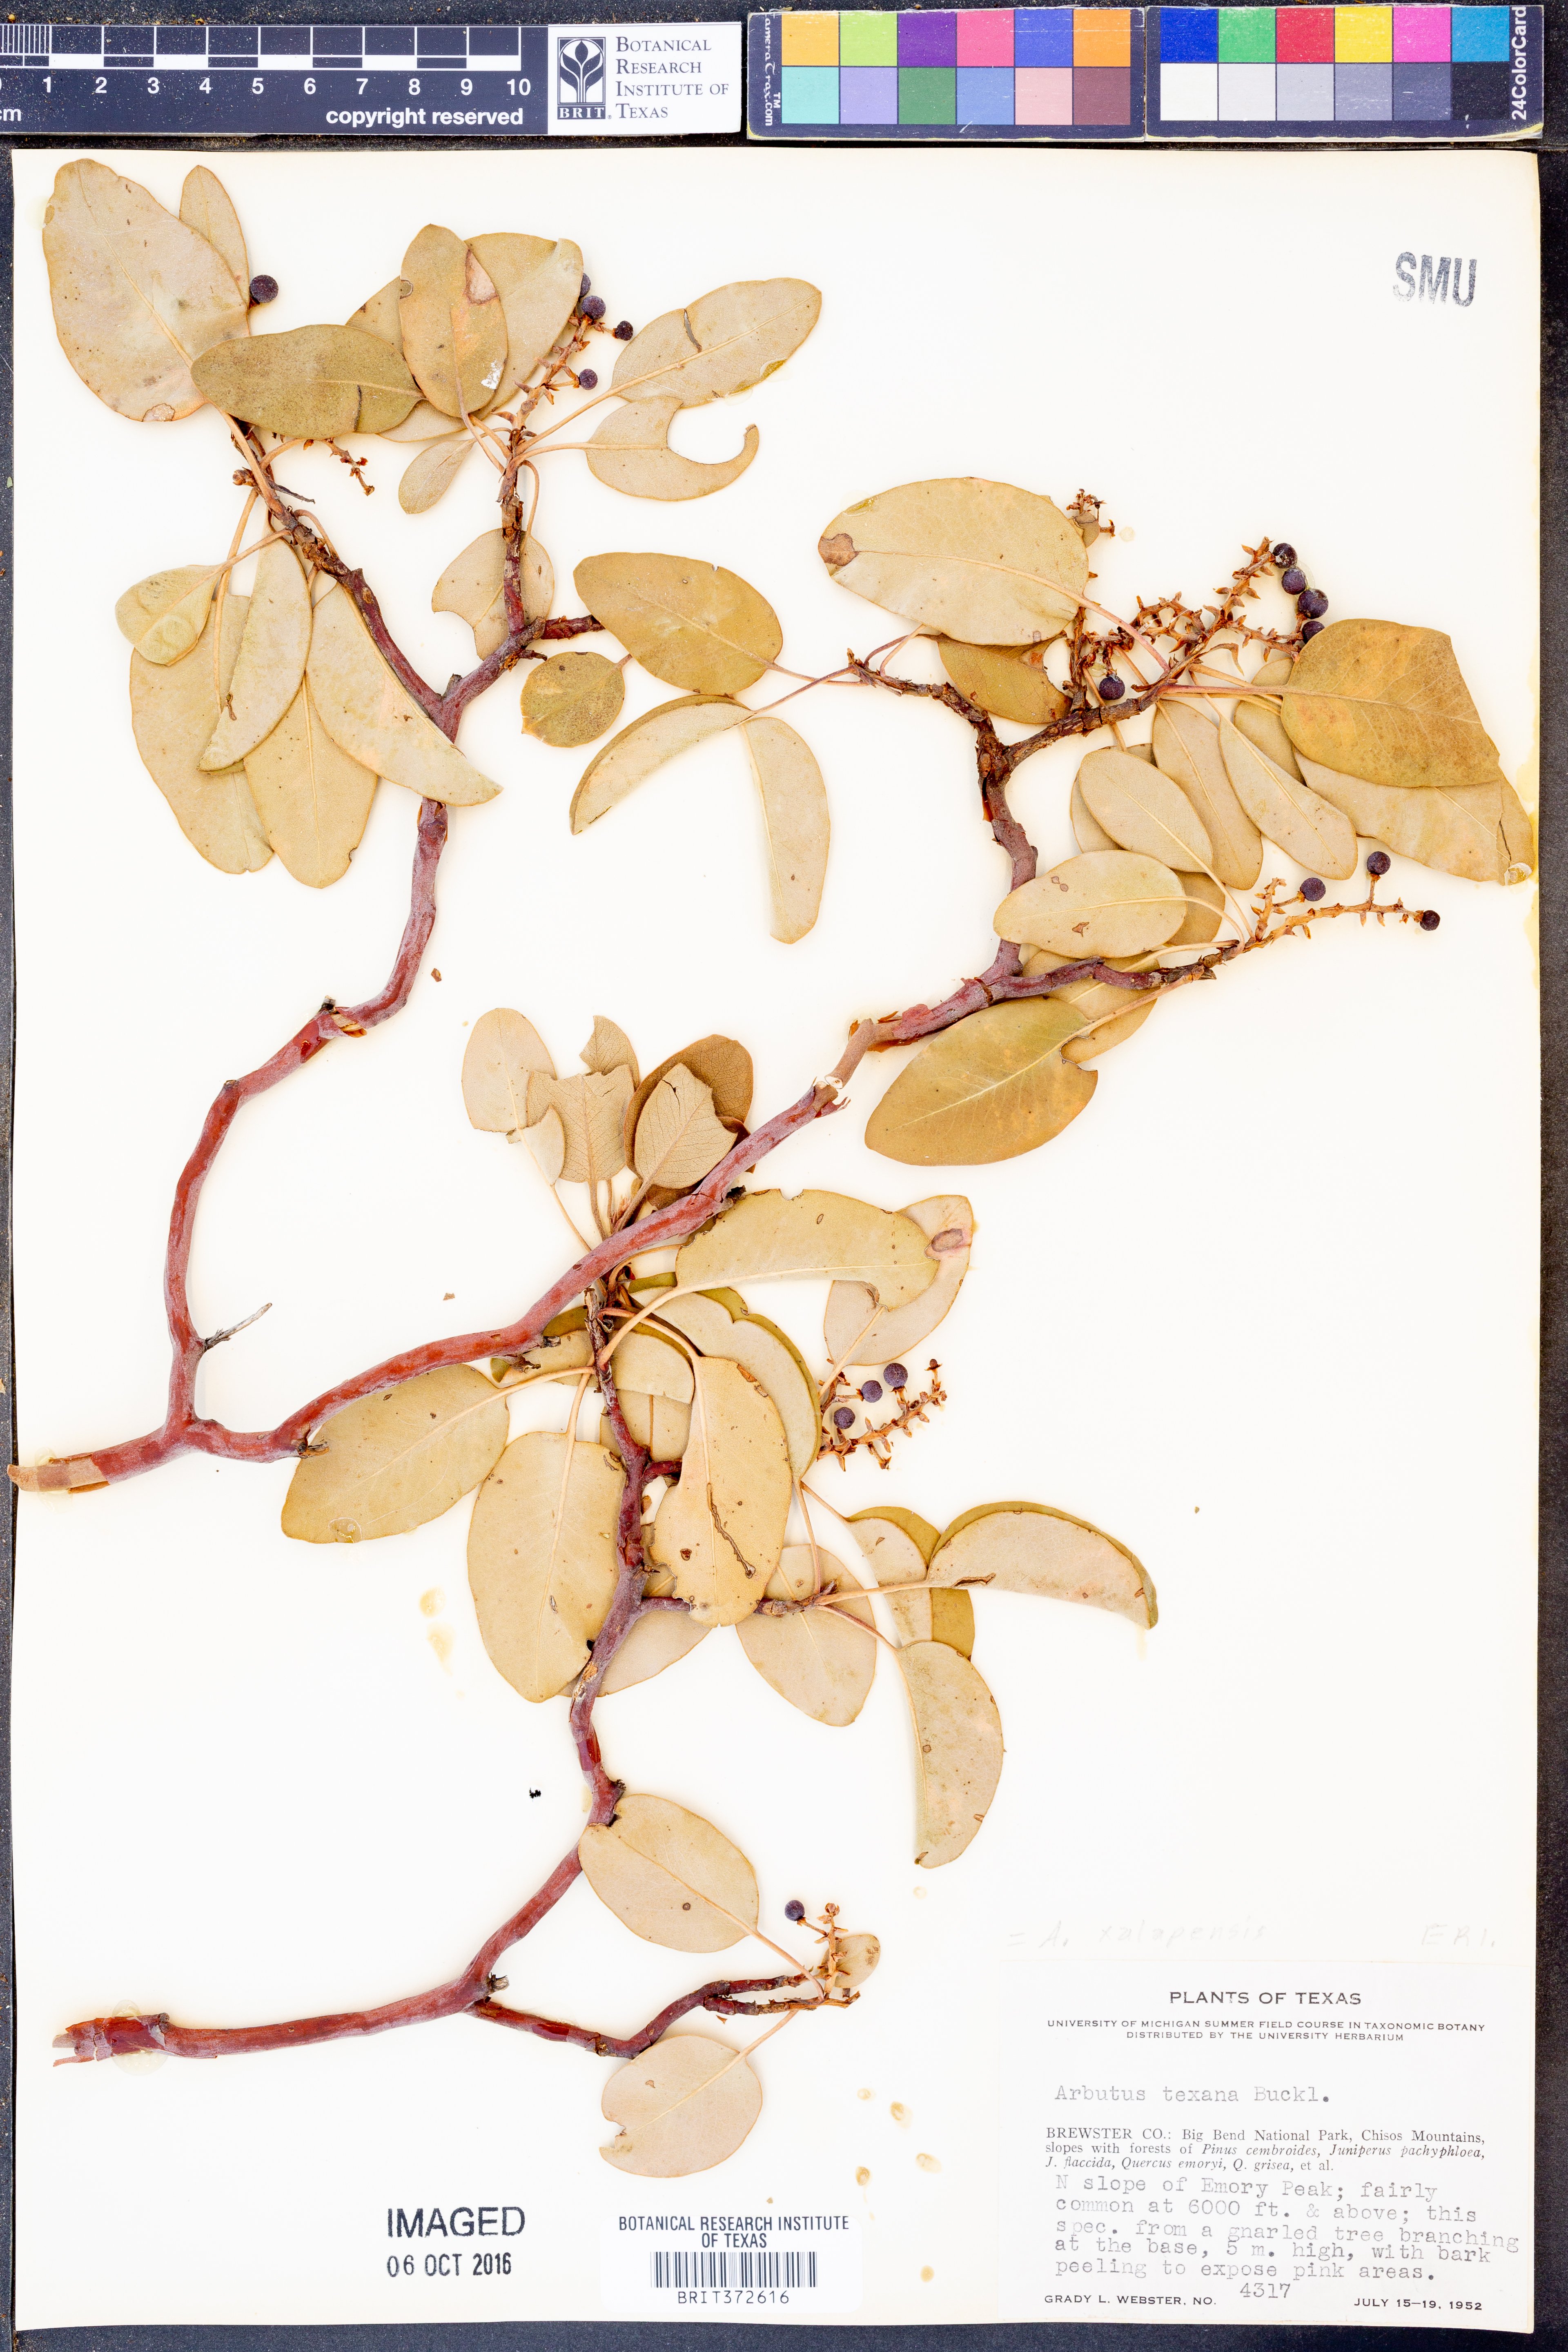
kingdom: Plantae
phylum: Tracheophyta
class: Magnoliopsida
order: Ericales
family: Ericaceae
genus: Arbutus
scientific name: Arbutus xalapensis
